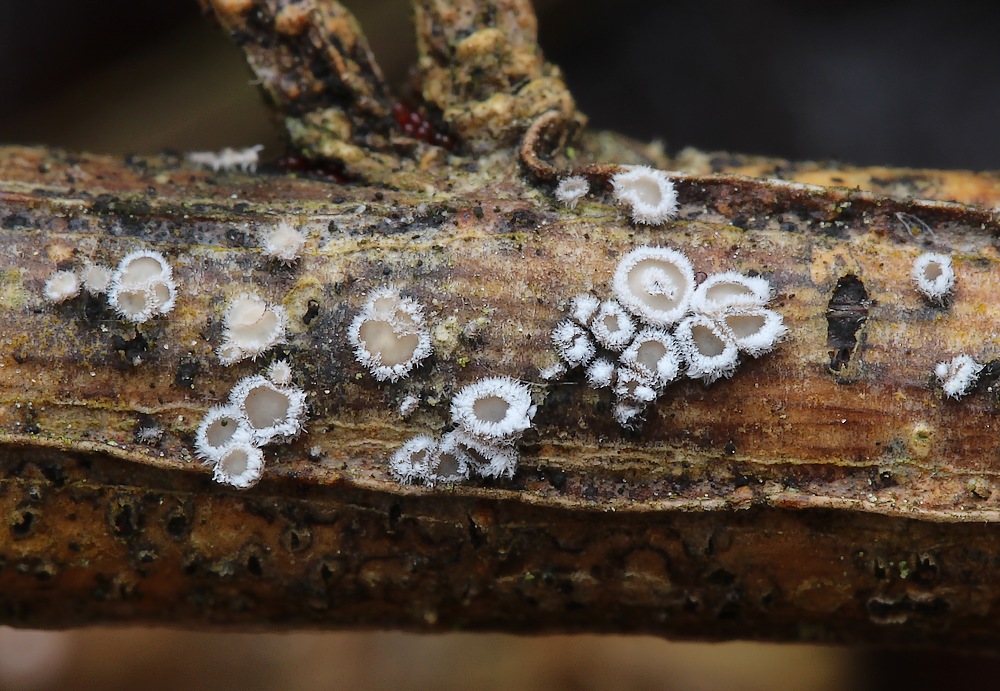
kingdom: Fungi
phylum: Basidiomycota
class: Agaricomycetes
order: Agaricales
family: Niaceae
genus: Lachnella
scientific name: Lachnella alboviolascens
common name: grå frynserede
